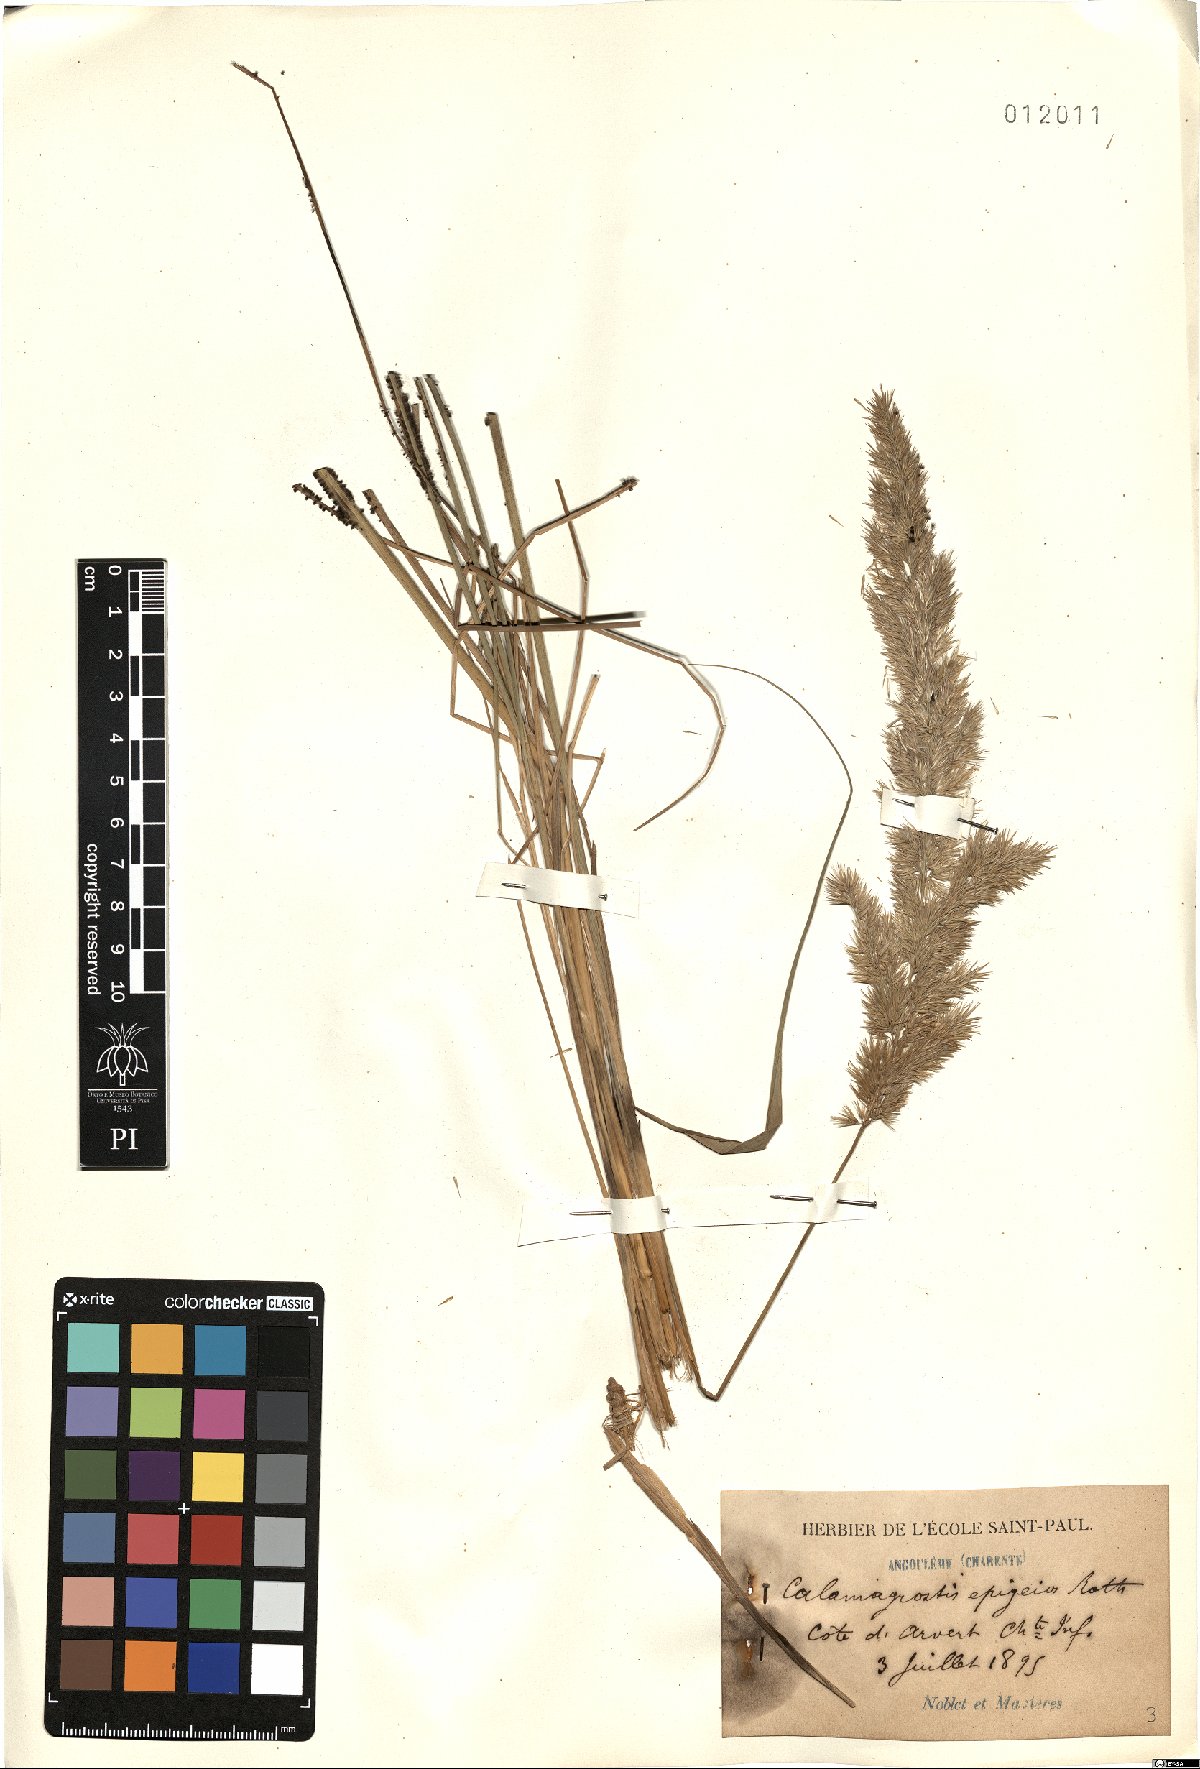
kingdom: Plantae
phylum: Tracheophyta
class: Liliopsida
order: Poales
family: Poaceae
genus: Calamagrostis
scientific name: Calamagrostis epigejos
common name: Wood small-reed
